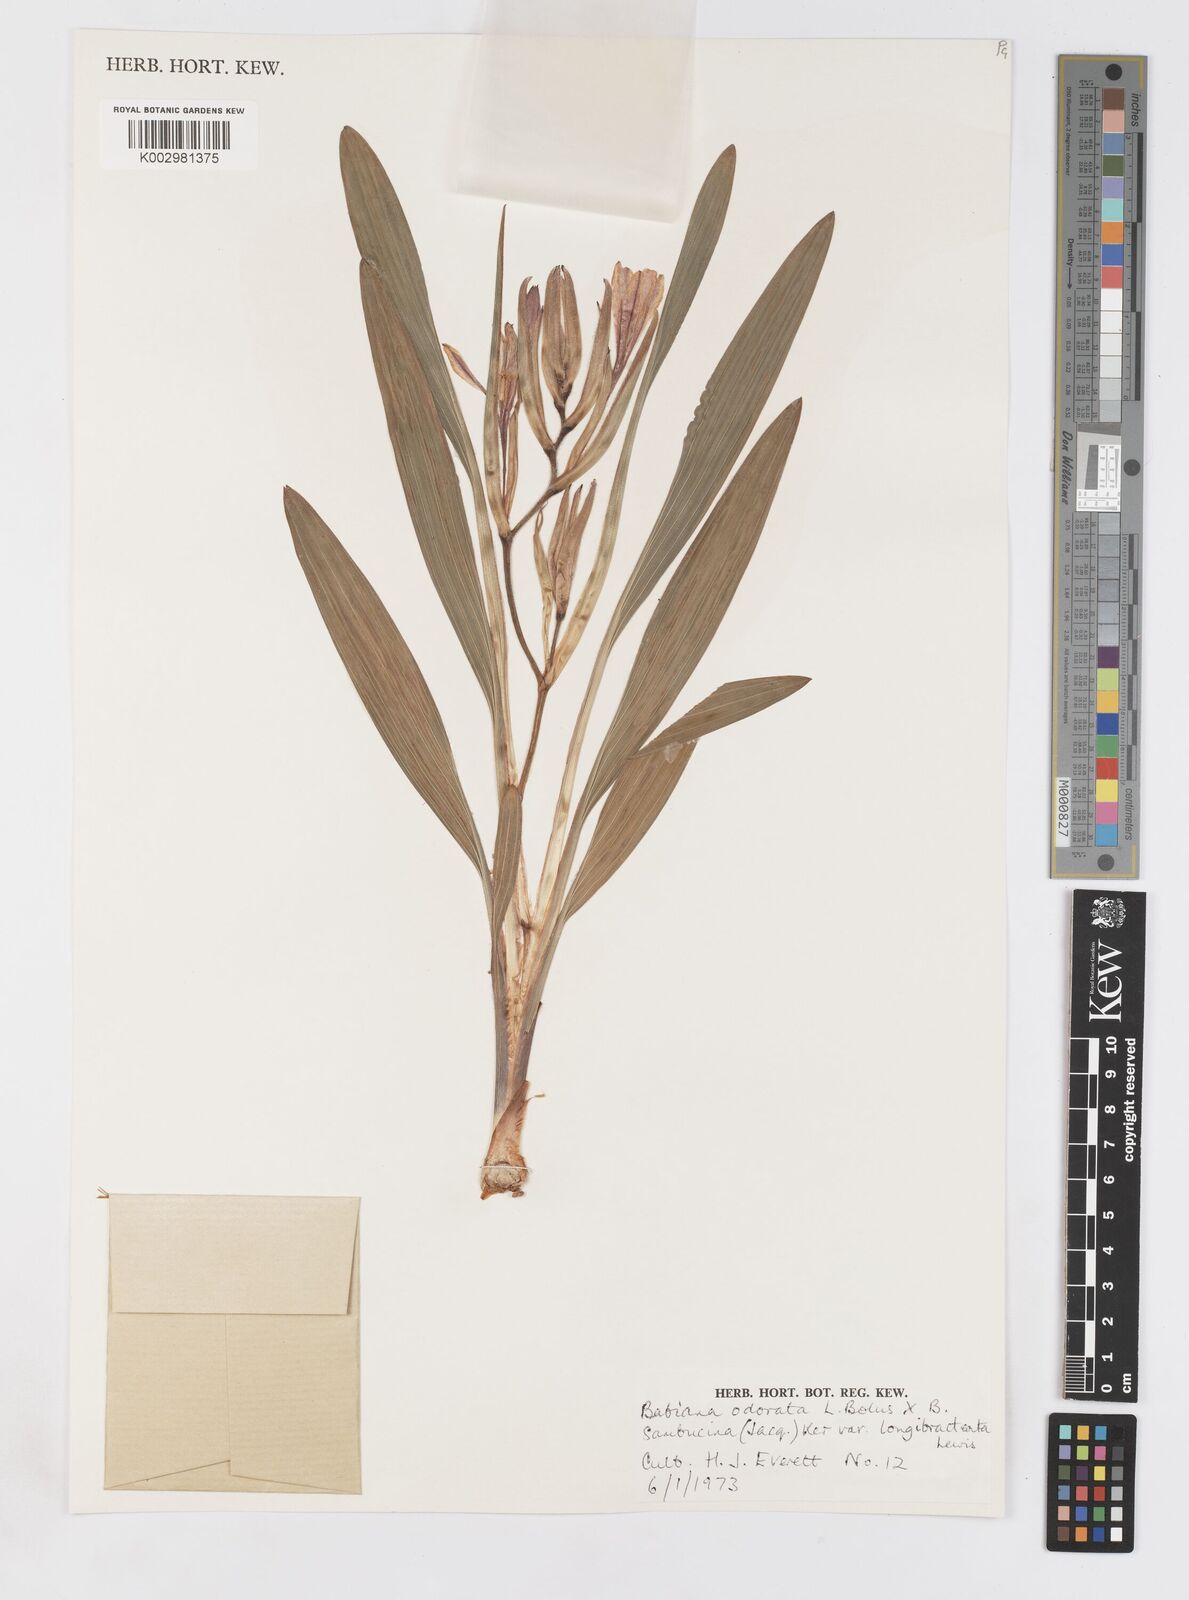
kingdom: Plantae
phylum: Tracheophyta
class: Liliopsida
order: Asparagales
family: Iridaceae
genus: Babiana
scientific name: Babiana odorata
